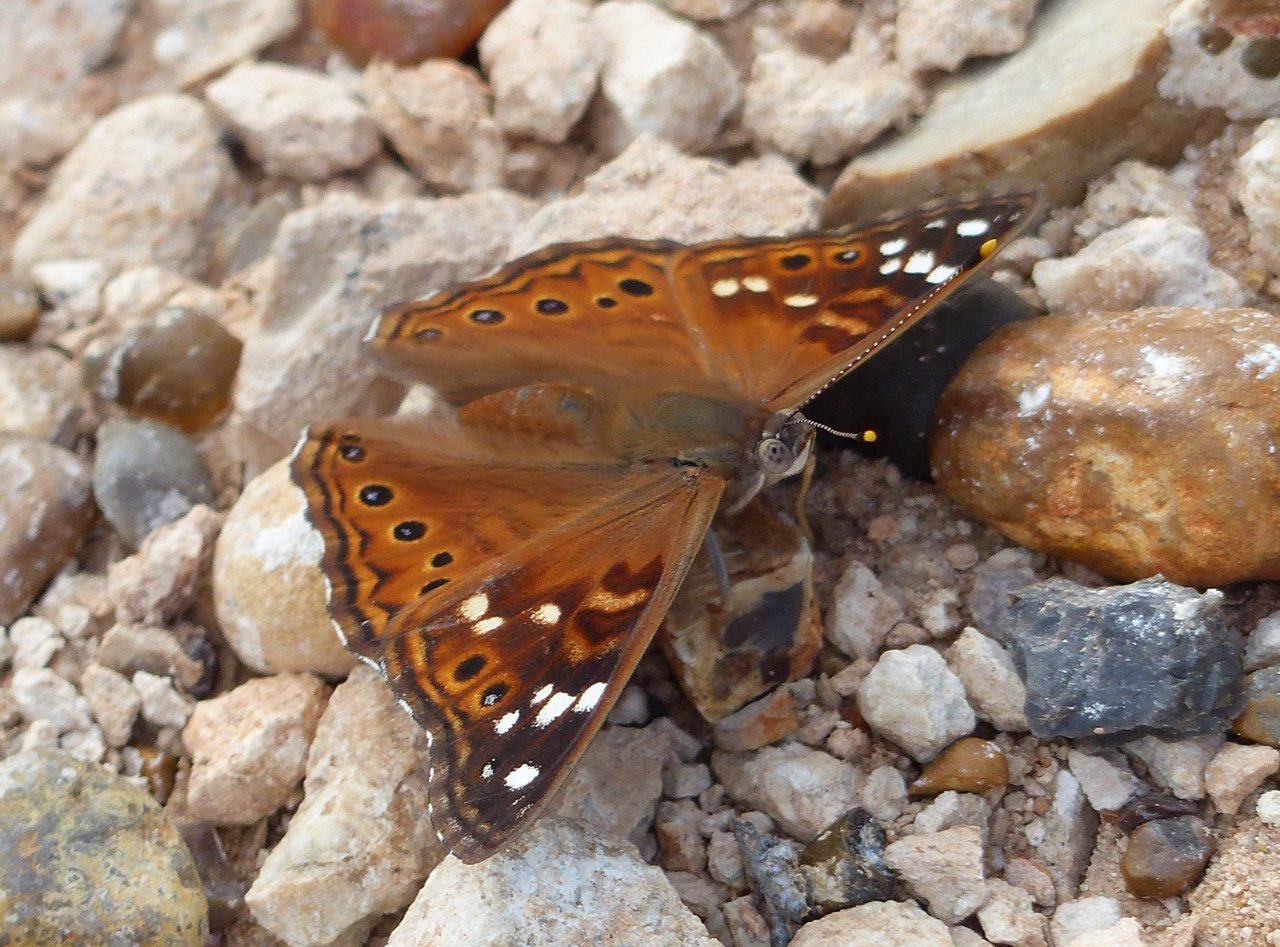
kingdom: Animalia
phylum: Arthropoda
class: Insecta
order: Lepidoptera
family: Nymphalidae
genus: Asterocampa
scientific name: Asterocampa leilia
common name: Empress Leilia
